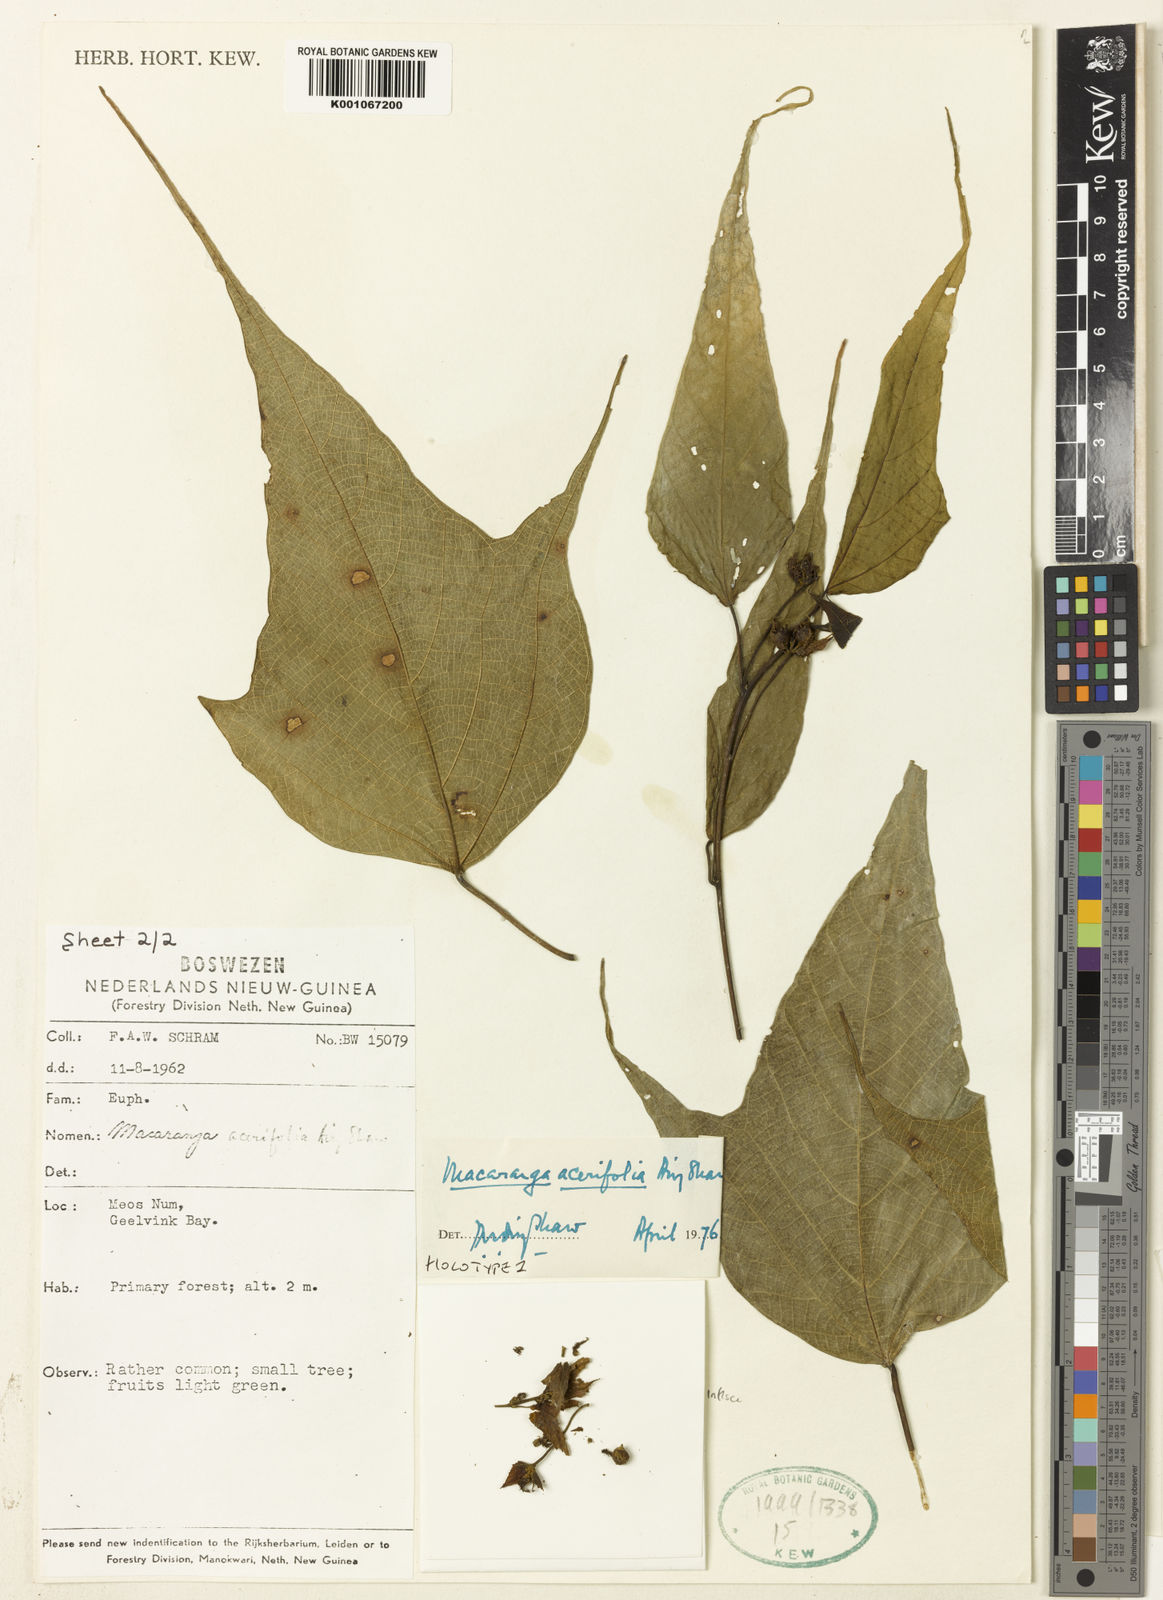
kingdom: Plantae
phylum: Tracheophyta
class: Magnoliopsida
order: Malpighiales
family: Euphorbiaceae
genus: Macaranga
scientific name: Macaranga acerifolia
